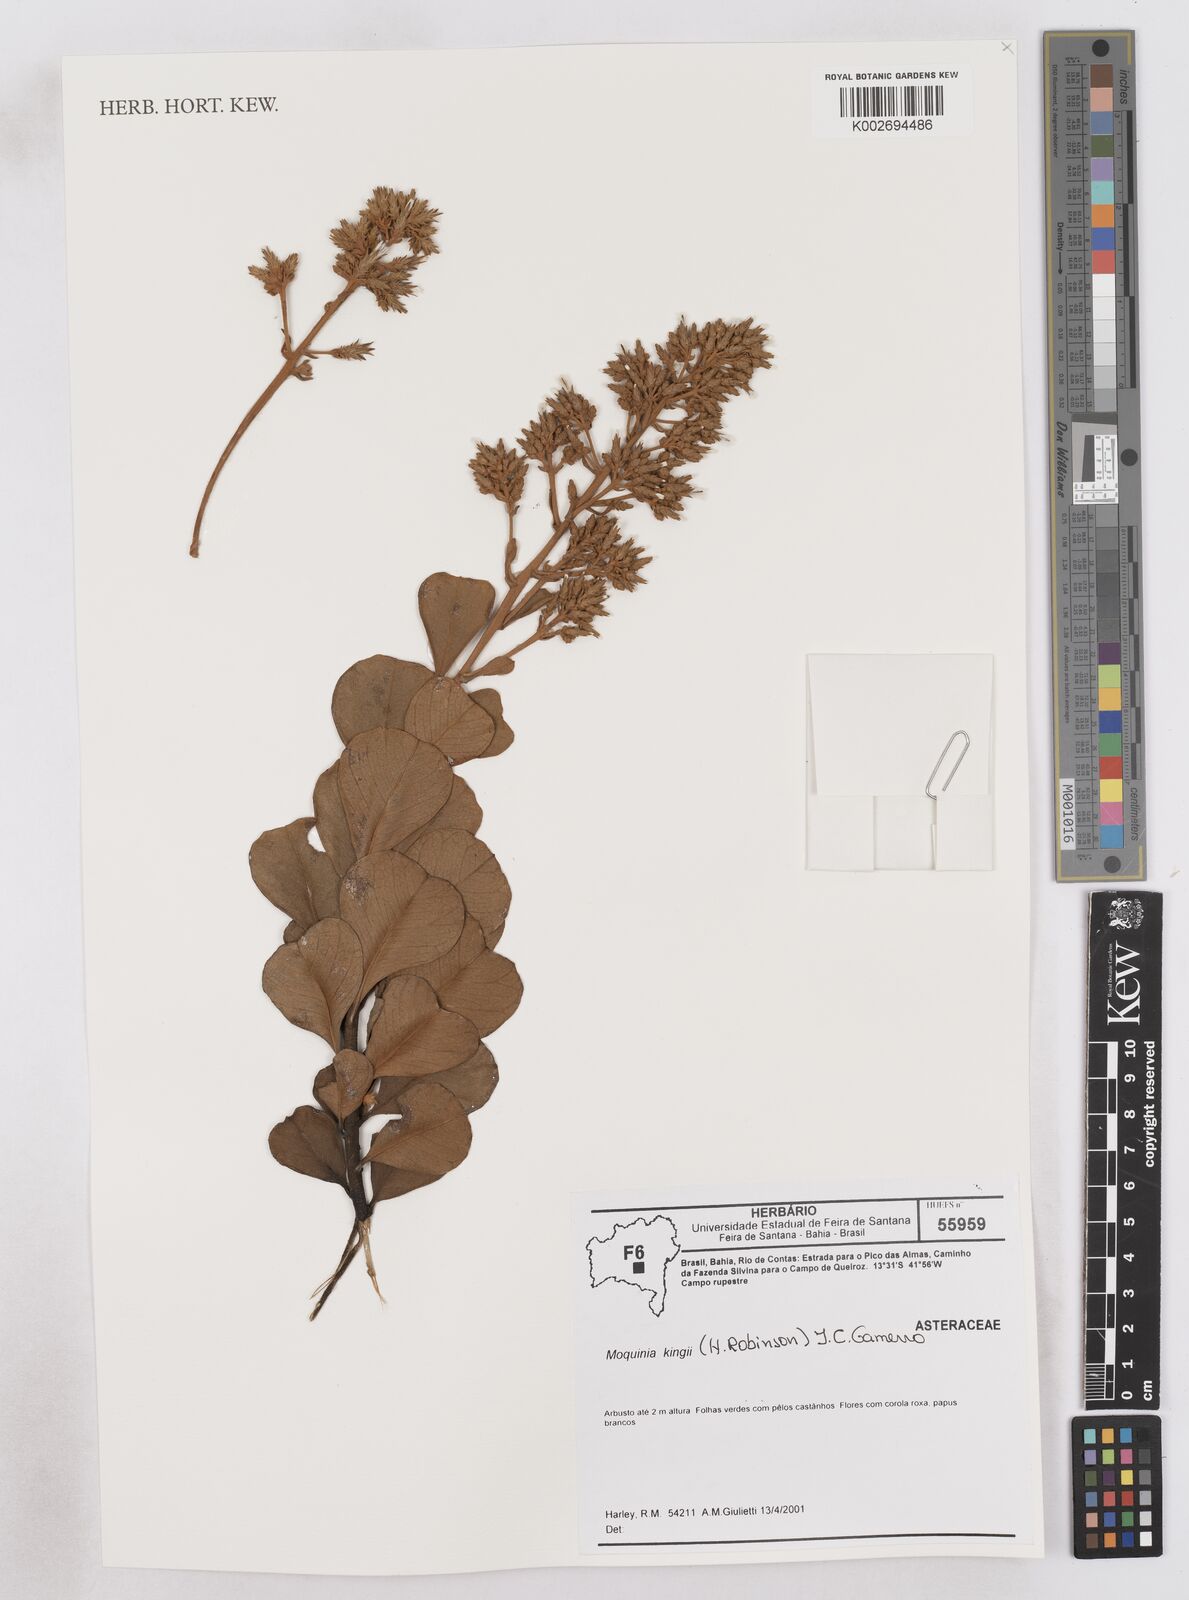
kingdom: Plantae
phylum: Tracheophyta
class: Magnoliopsida
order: Asterales
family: Asteraceae
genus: Pseudostifftia
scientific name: Pseudostifftia kingii
